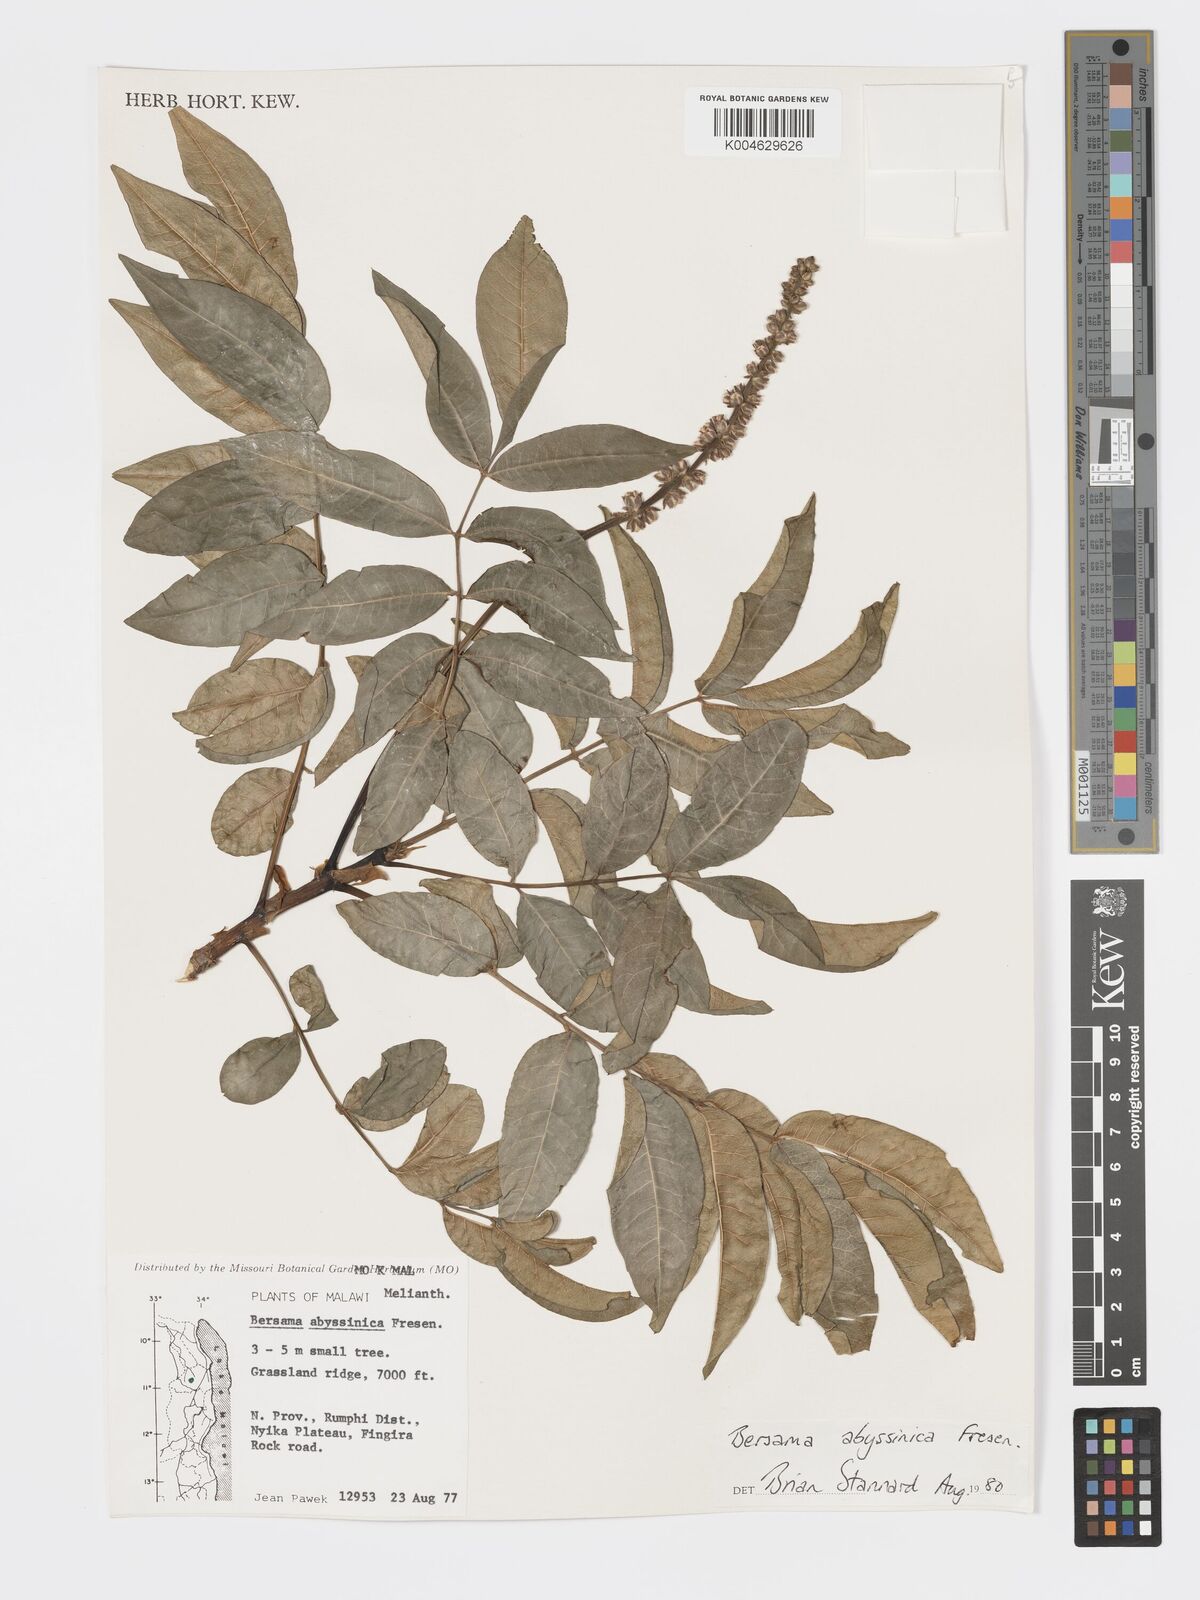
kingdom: Plantae
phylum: Tracheophyta
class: Magnoliopsida
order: Geraniales
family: Melianthaceae
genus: Bersama
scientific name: Bersama abyssinica
